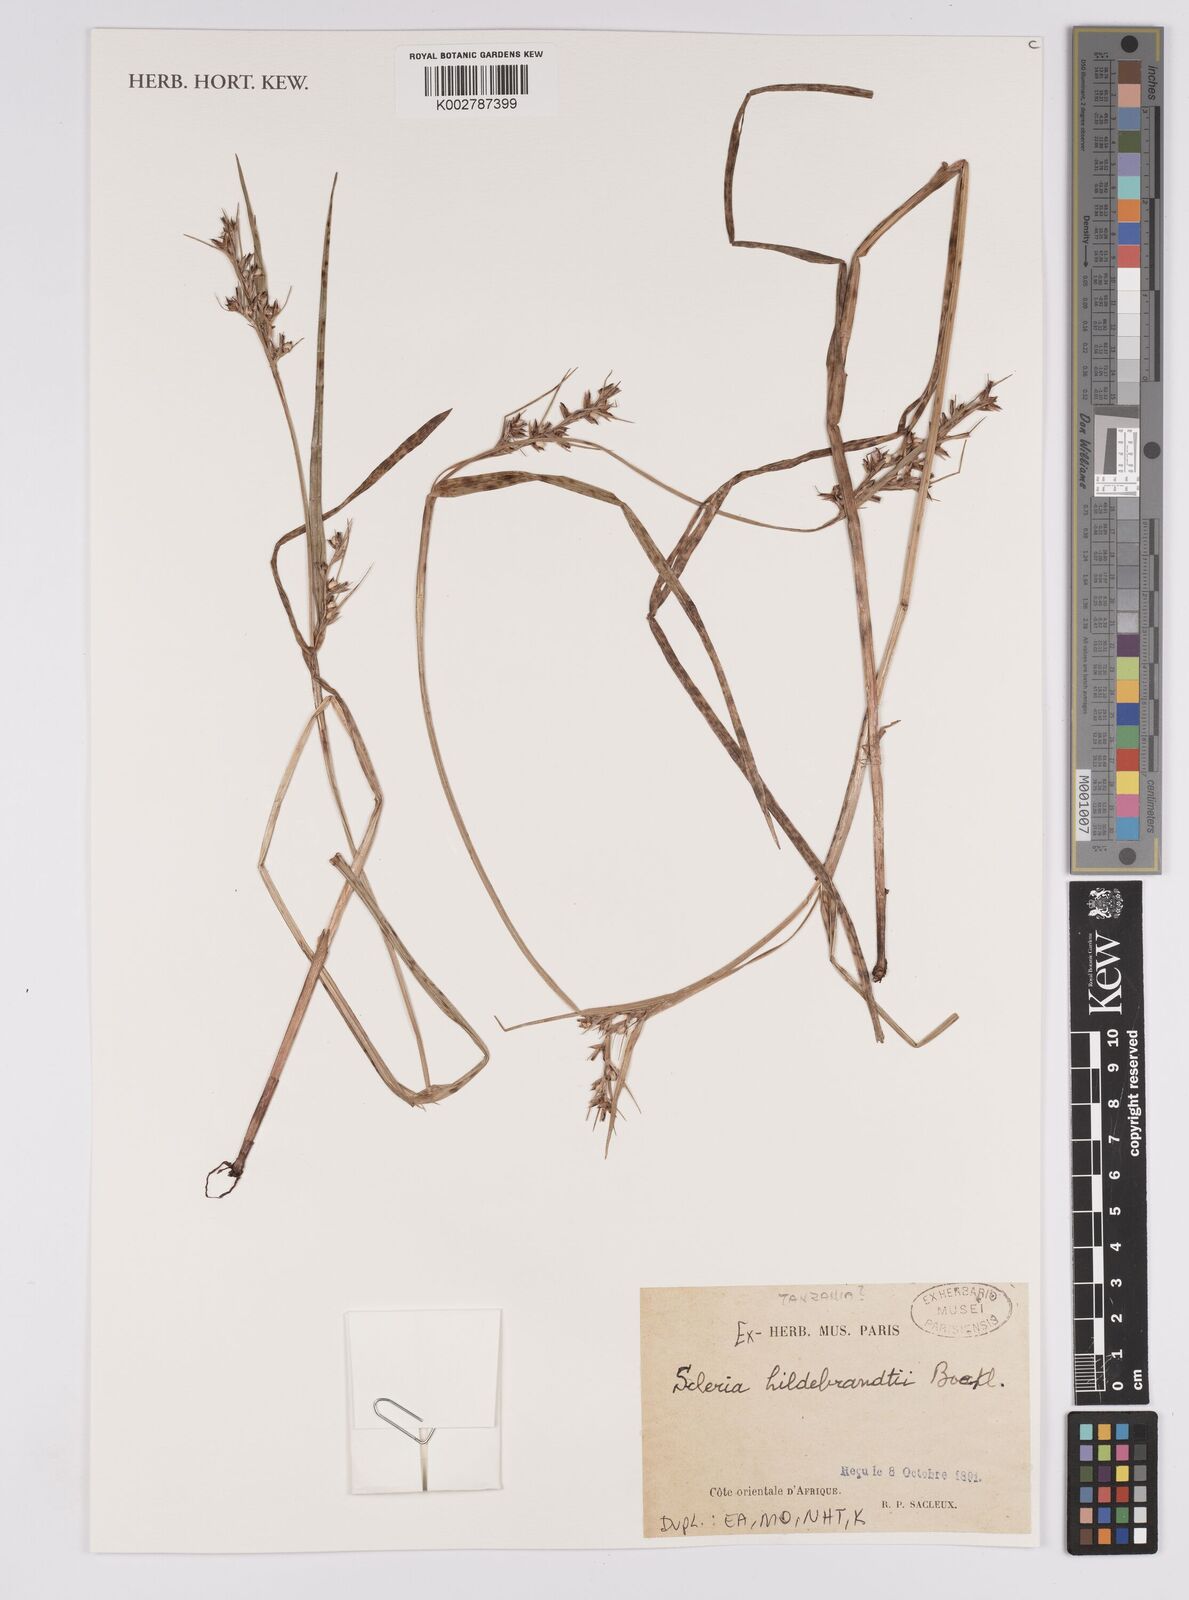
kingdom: Plantae
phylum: Tracheophyta
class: Liliopsida
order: Poales
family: Cyperaceae
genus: Scleria
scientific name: Scleria hildebrandtii
